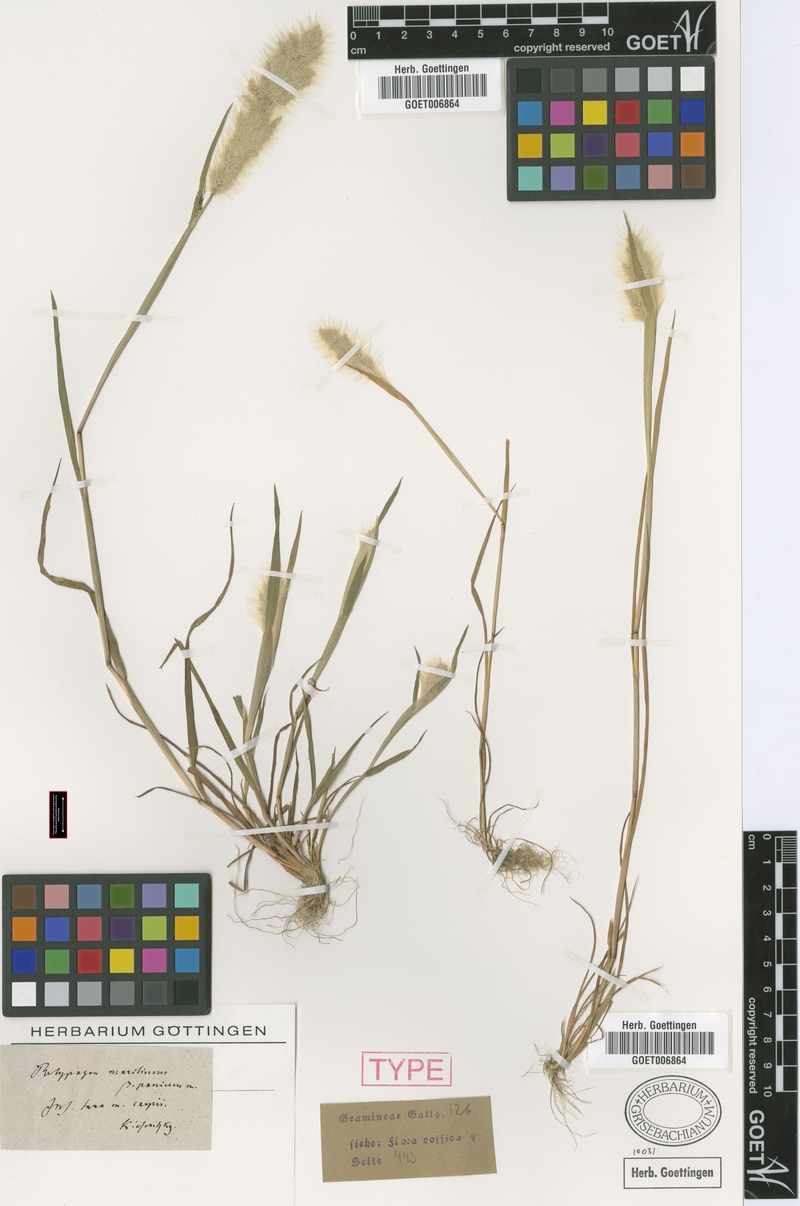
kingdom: Plantae
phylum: Tracheophyta
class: Liliopsida
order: Poales
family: Poaceae
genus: Polypogon
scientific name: Polypogon maritimus
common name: Mediterranean rabbitsfoot grass
